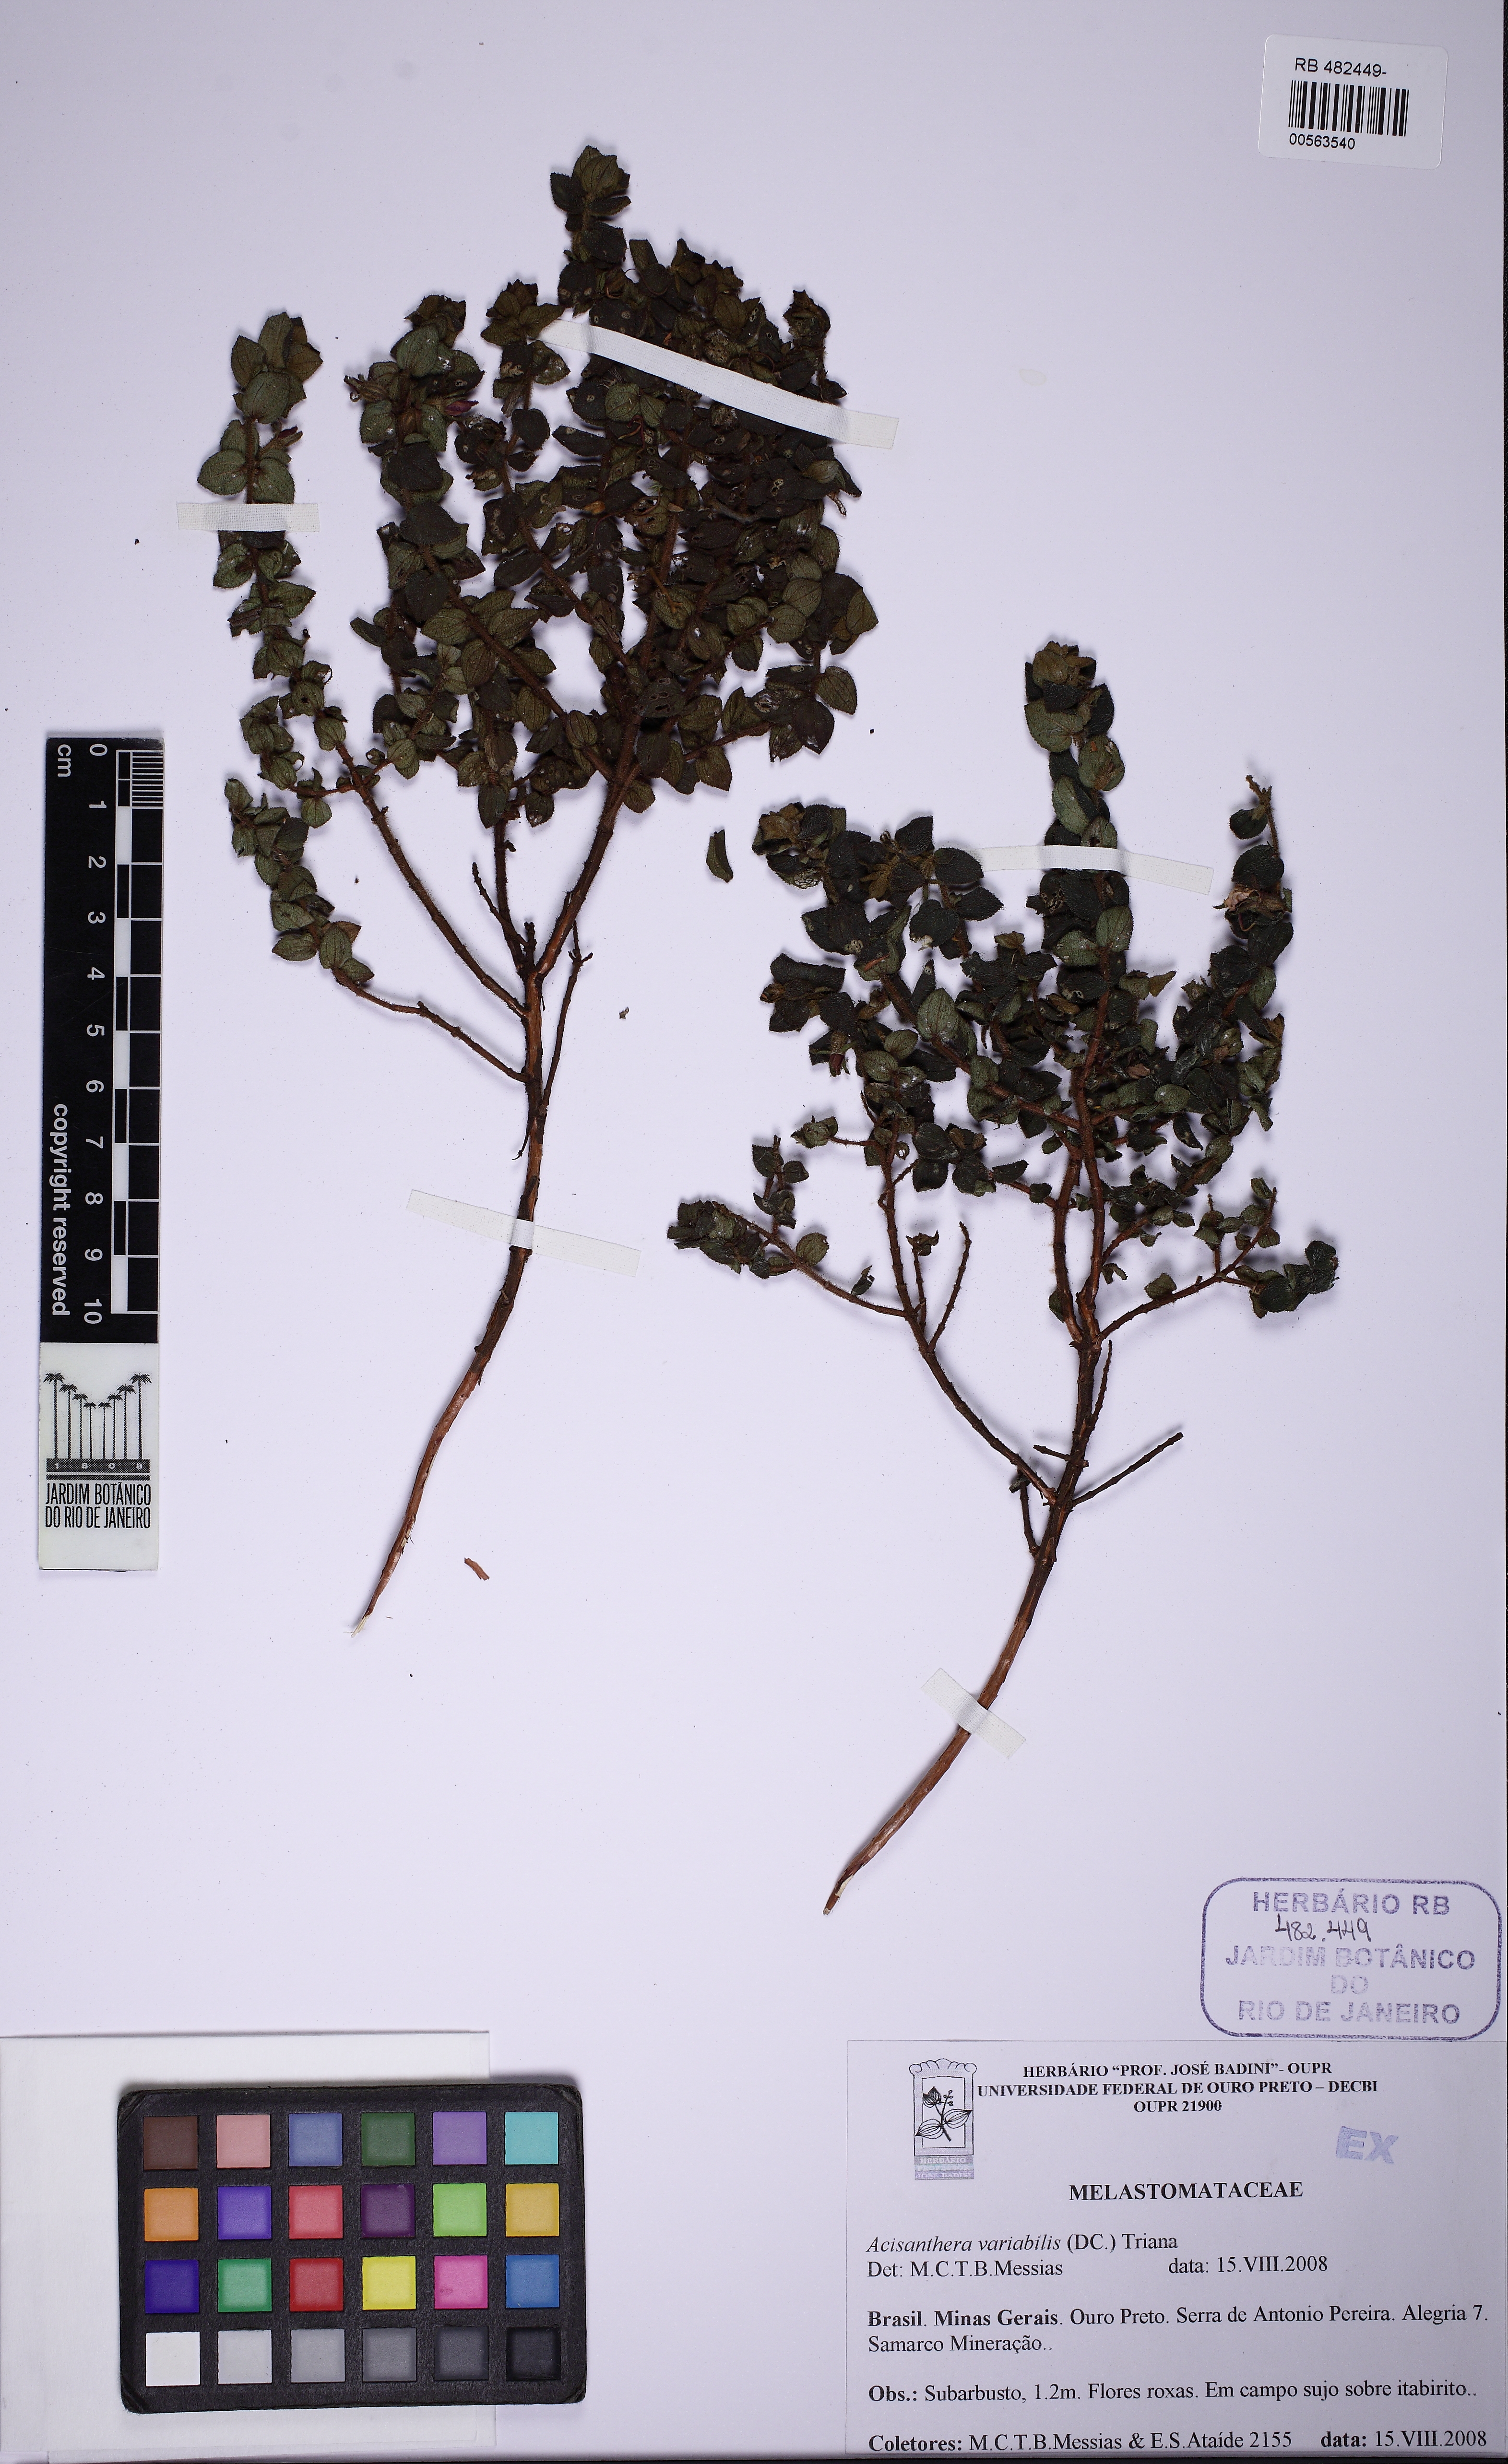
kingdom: Plantae
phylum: Tracheophyta
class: Magnoliopsida
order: Myrtales
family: Melastomataceae
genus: Fritzschia
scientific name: Fritzschia sessilis
